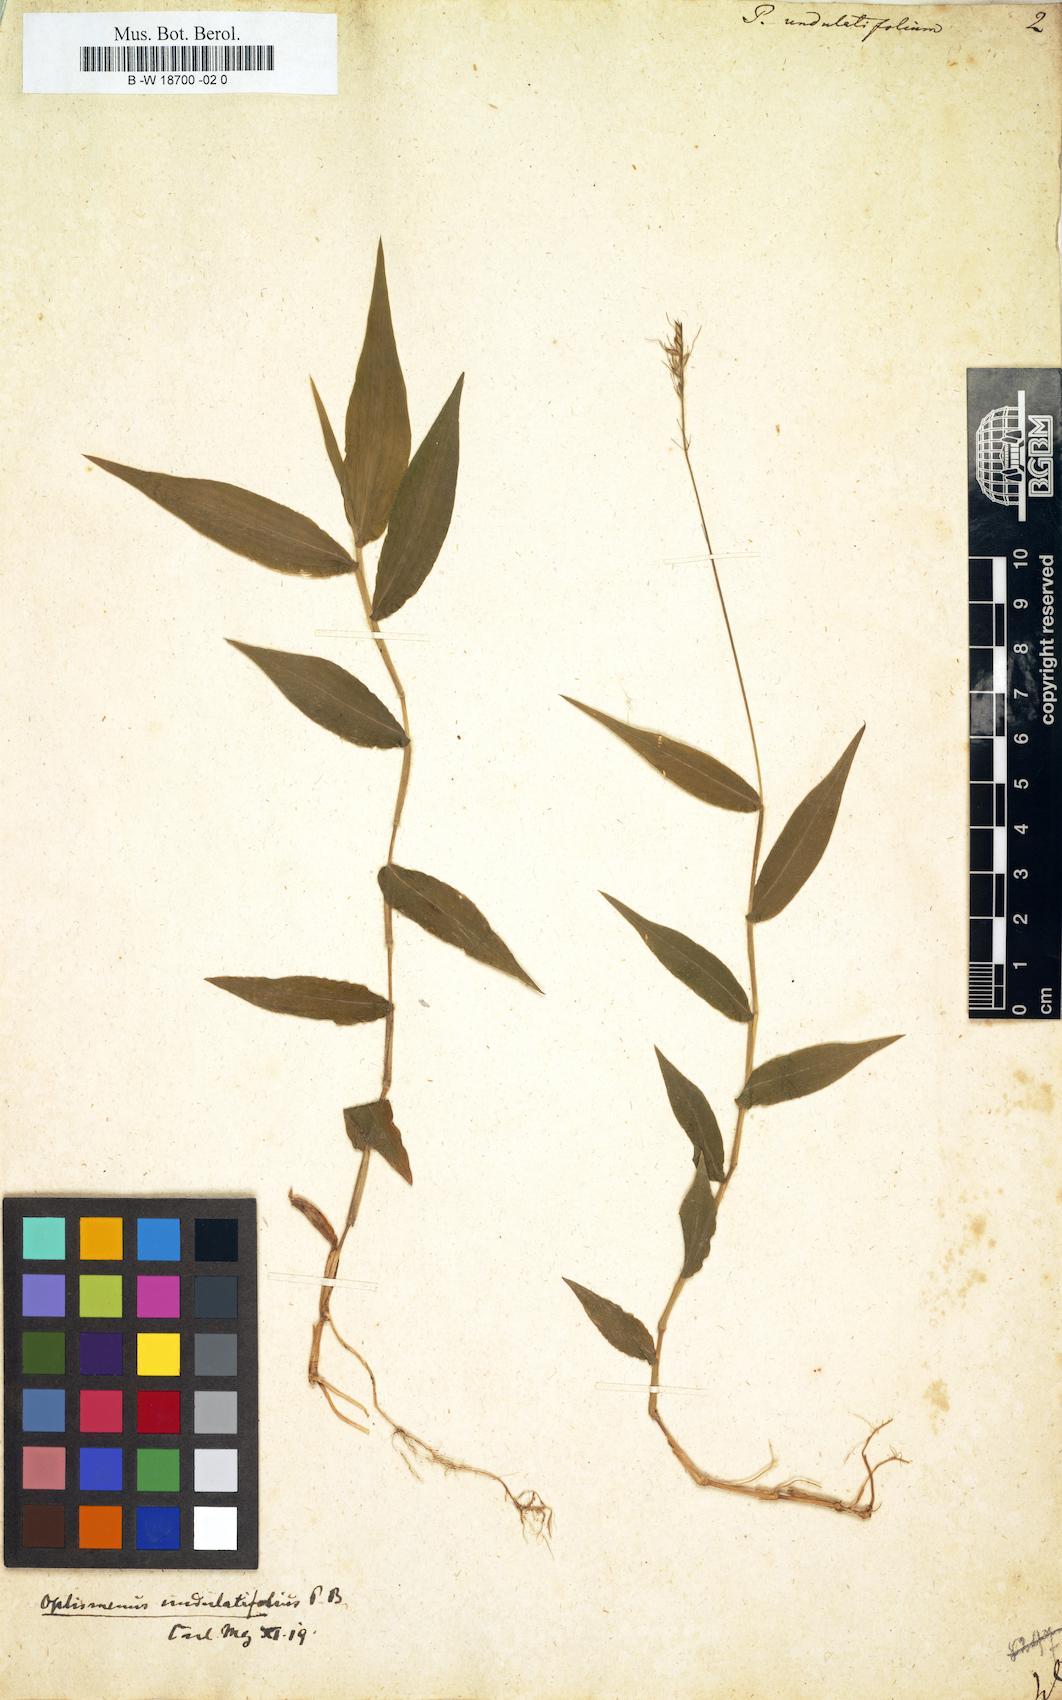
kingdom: Plantae
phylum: Tracheophyta
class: Liliopsida
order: Poales
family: Poaceae
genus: Oplismenus
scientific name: Oplismenus undulatifolius
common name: Wavyleaf basketgrass
